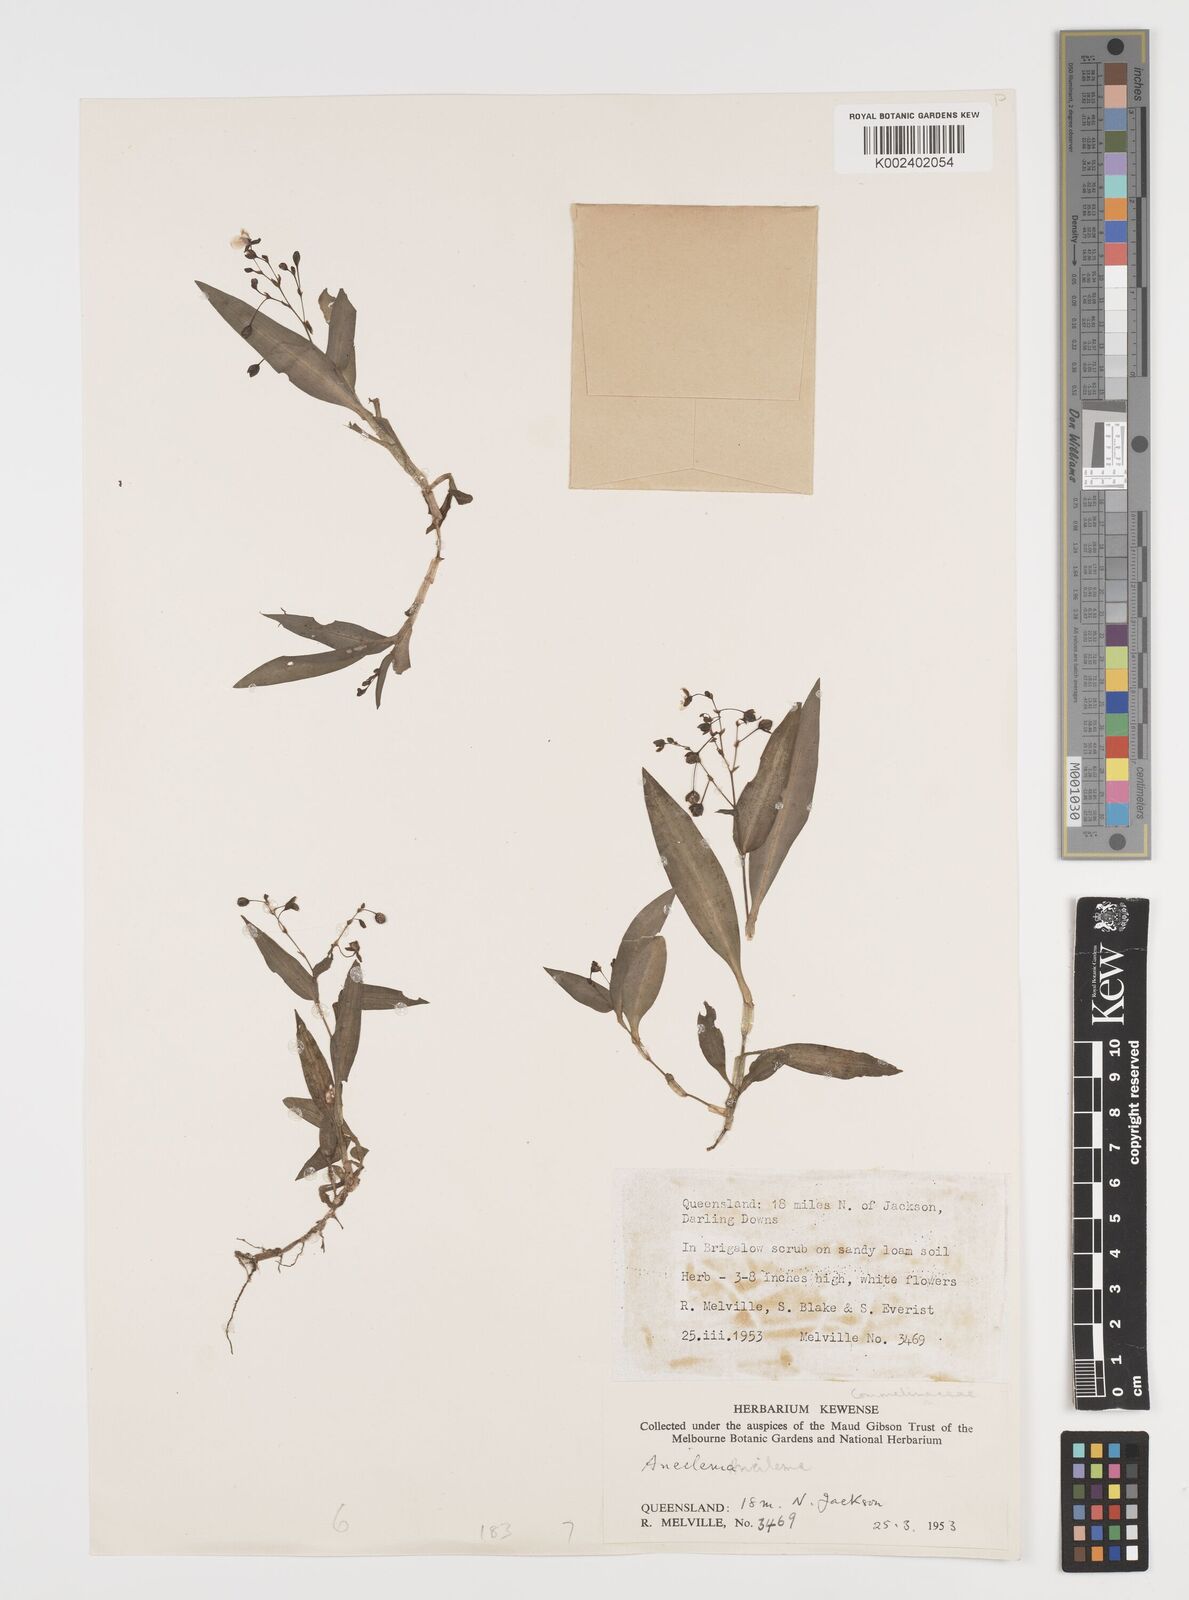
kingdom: Plantae
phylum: Tracheophyta
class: Liliopsida
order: Commelinales
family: Commelinaceae
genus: Aneilema
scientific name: Aneilema acuminatum
